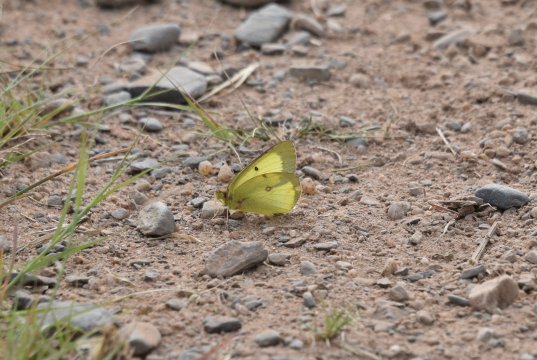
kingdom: Animalia
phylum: Arthropoda
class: Insecta
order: Lepidoptera
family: Pieridae
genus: Colias
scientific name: Colias philodice
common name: Clouded Sulphur
